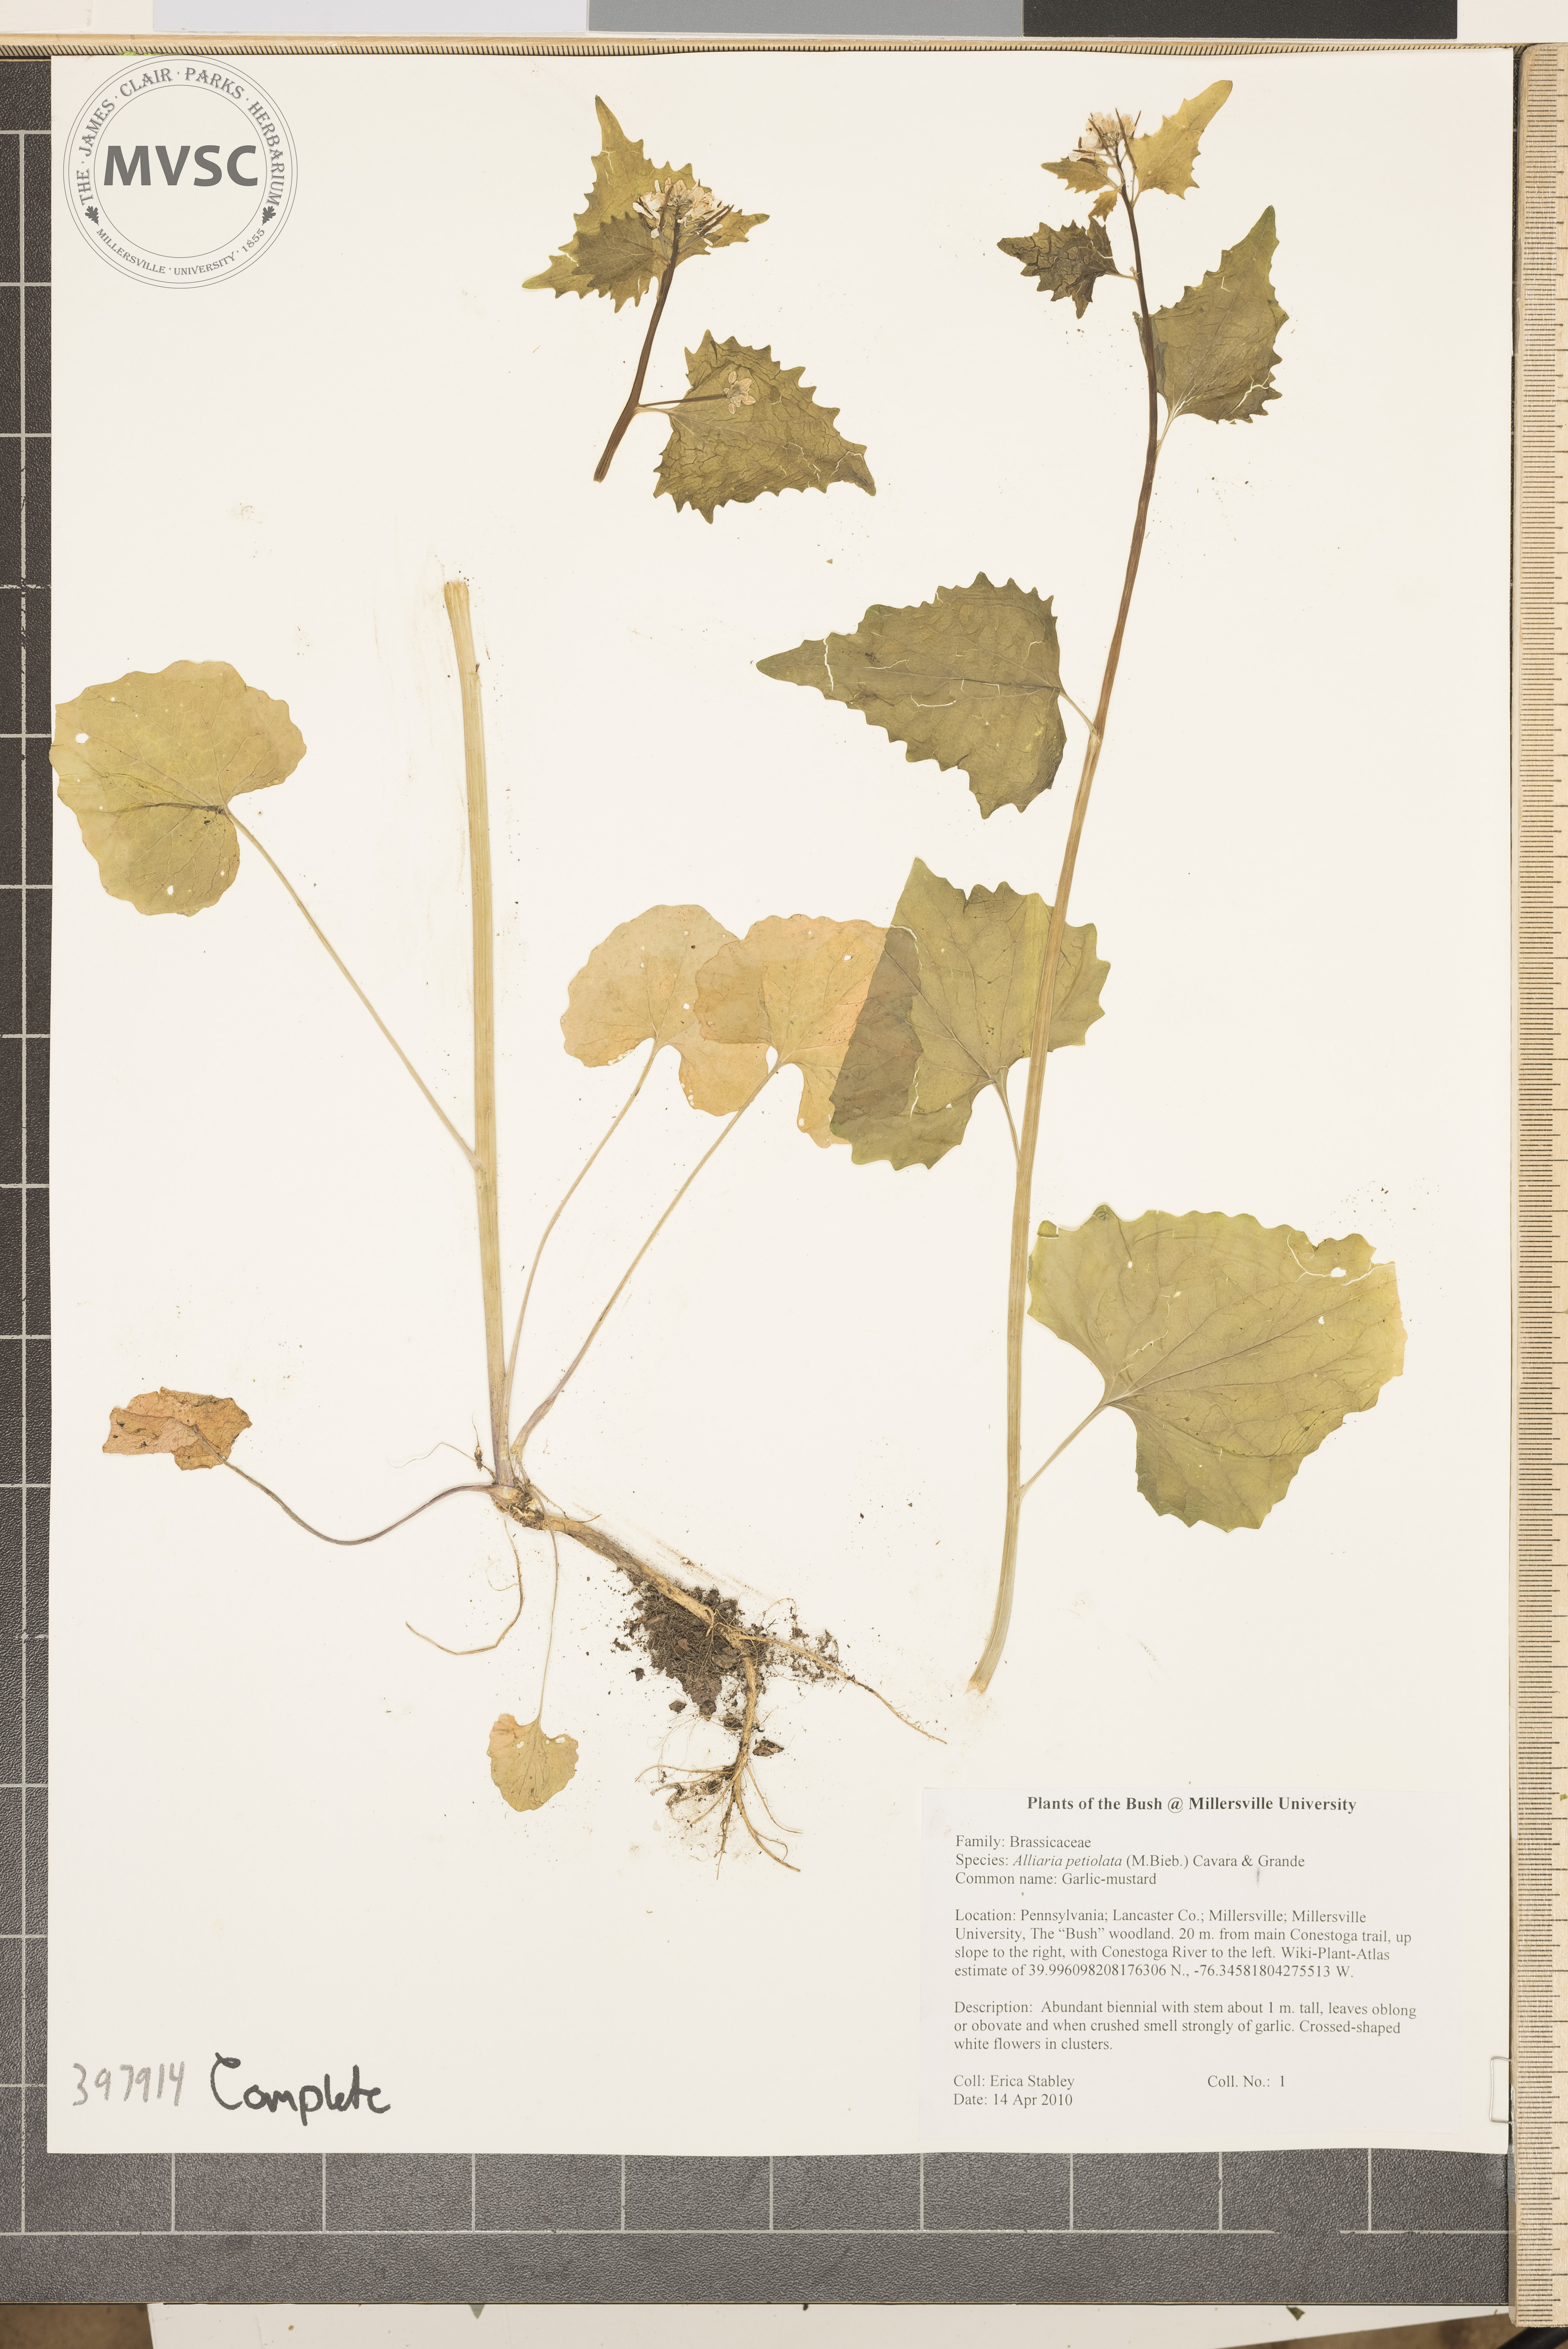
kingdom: Plantae
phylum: Tracheophyta
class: Magnoliopsida
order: Brassicales
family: Brassicaceae
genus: Alliaria
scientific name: Alliaria petiolata
